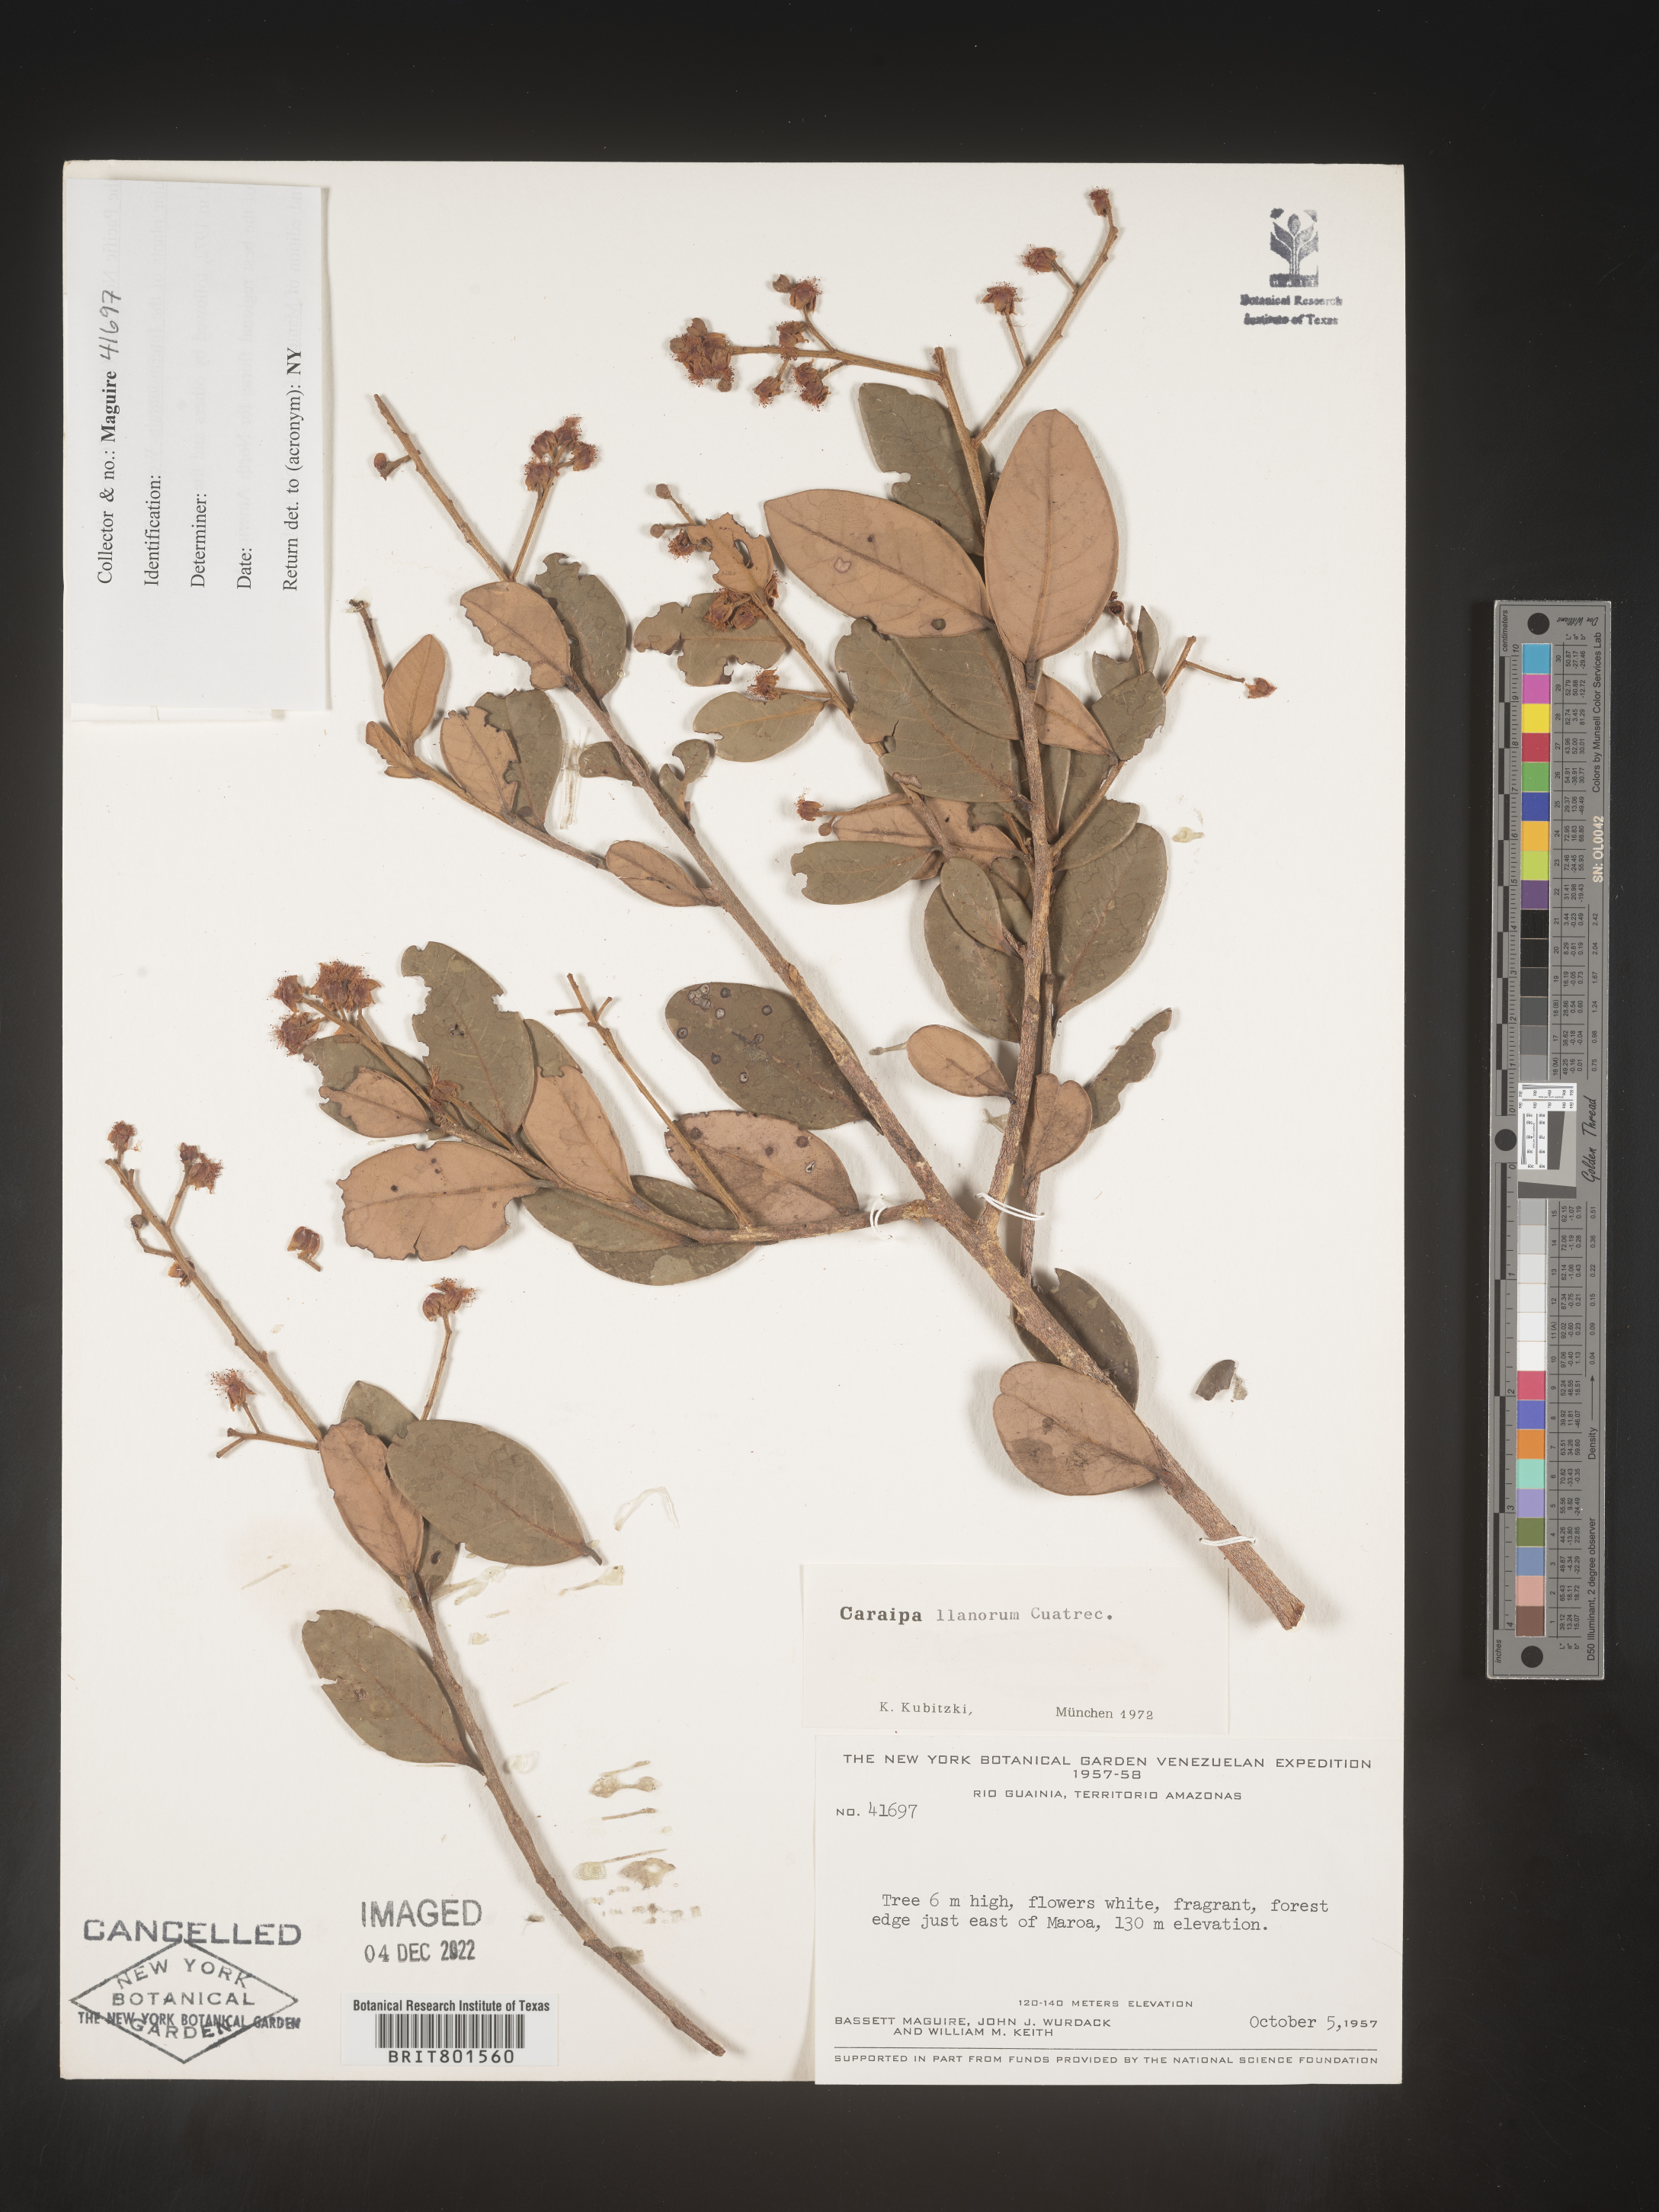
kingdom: Plantae
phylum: Tracheophyta
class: Magnoliopsida
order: Malpighiales
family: Calophyllaceae
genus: Caraipa
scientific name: Caraipa
